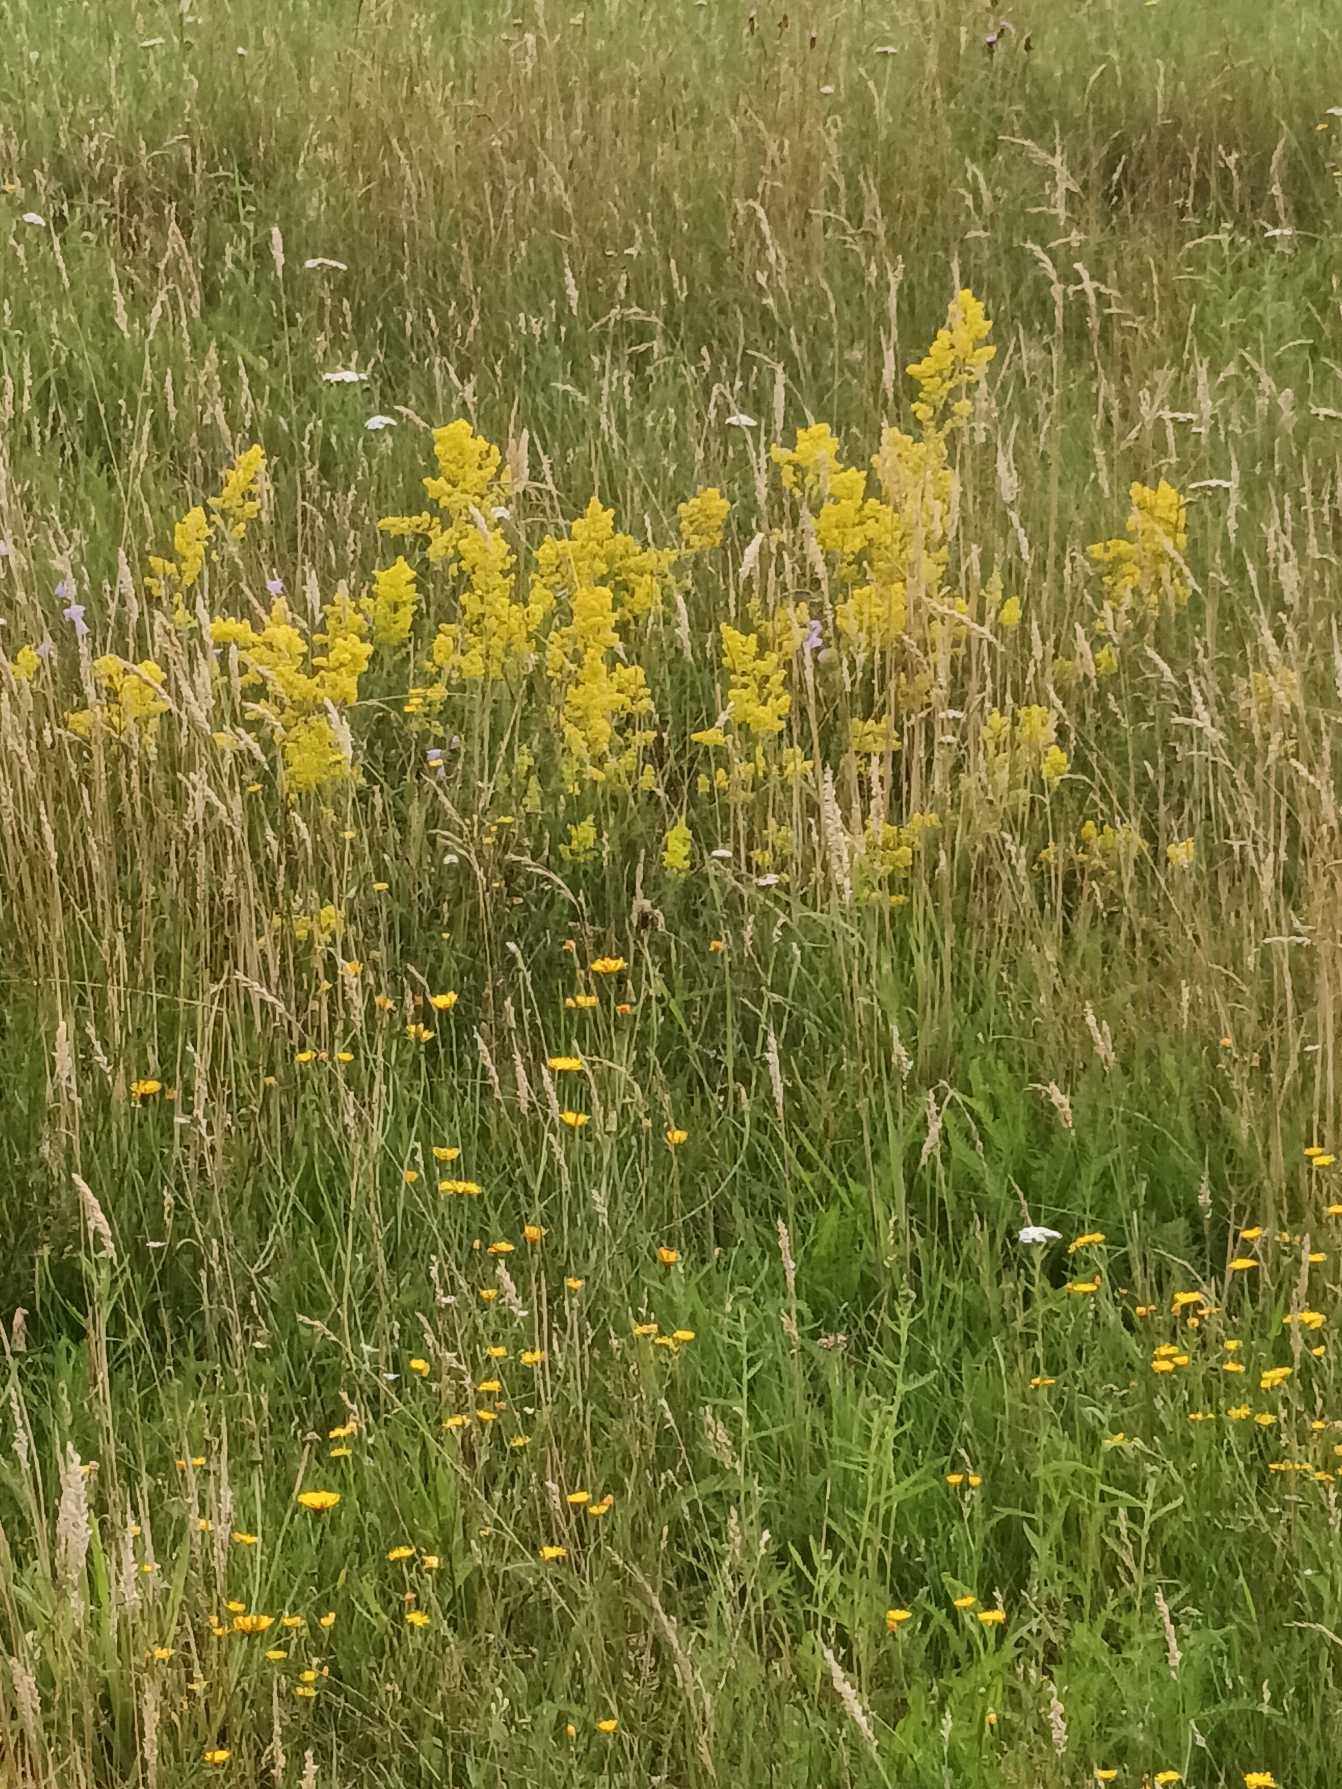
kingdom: Plantae
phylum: Tracheophyta
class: Magnoliopsida
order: Gentianales
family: Rubiaceae
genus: Galium
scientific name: Galium verum
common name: Gul snerre
